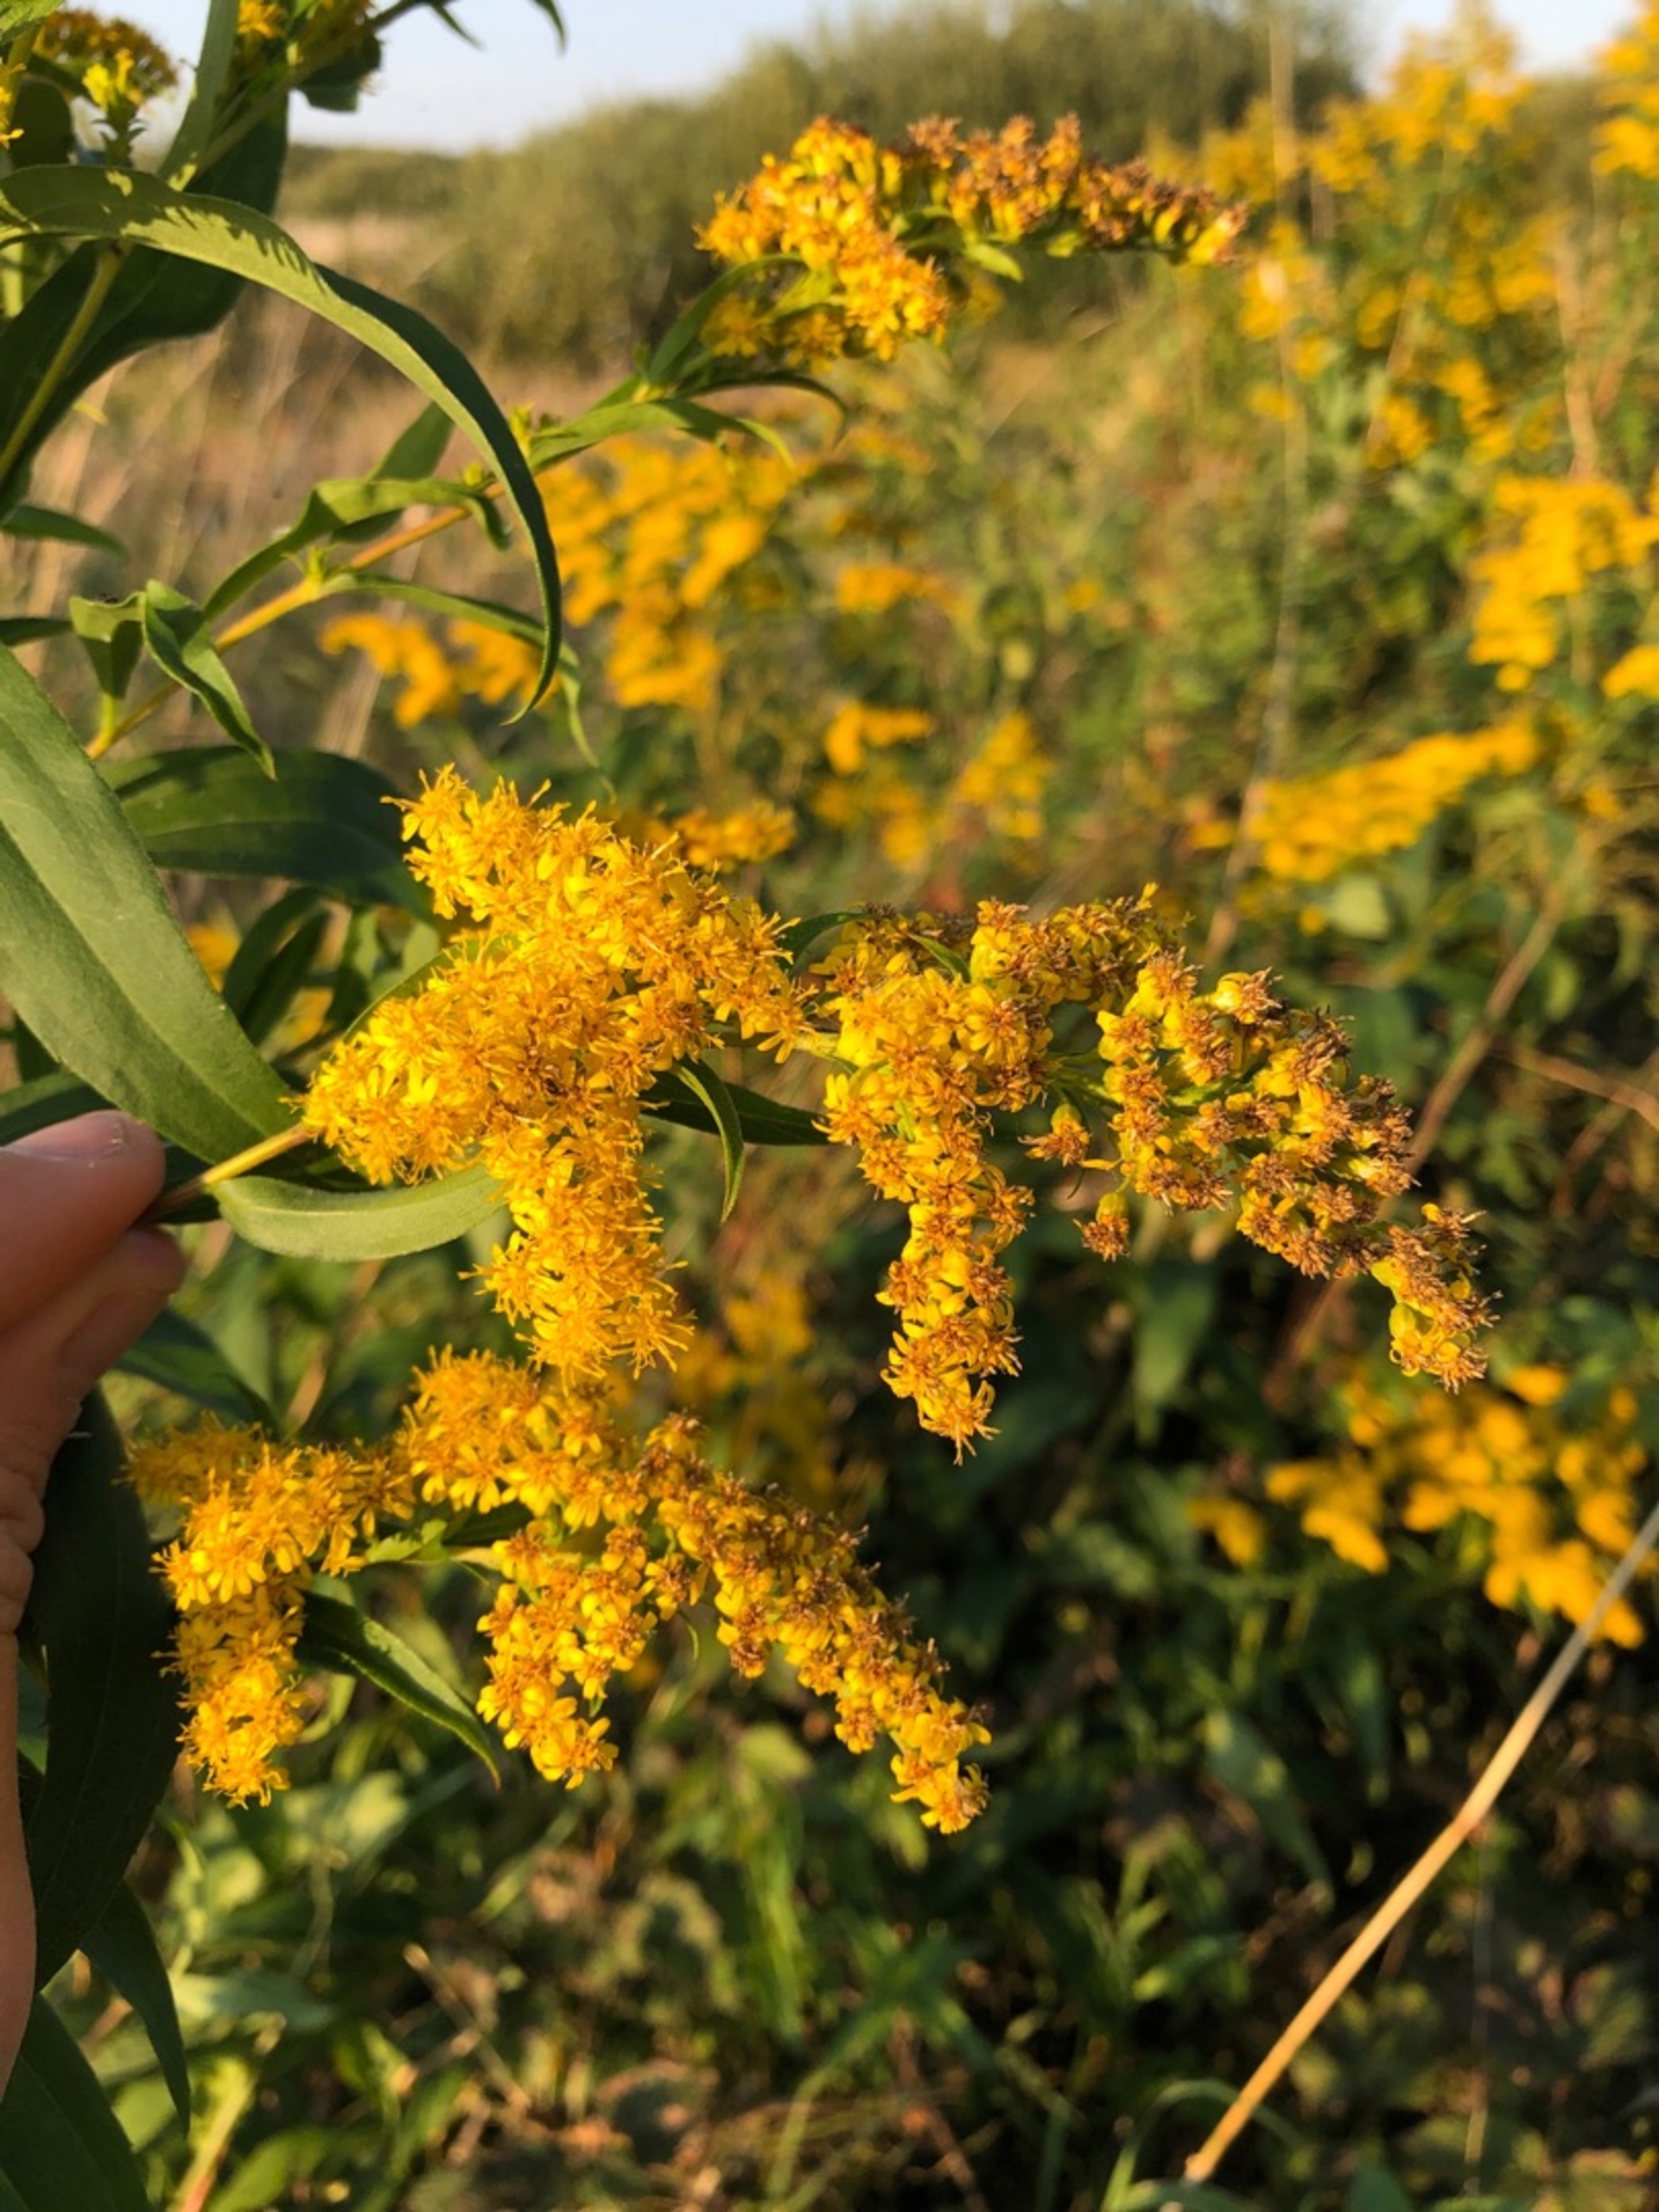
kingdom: Plantae
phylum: Tracheophyta
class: Magnoliopsida
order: Asterales
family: Asteraceae
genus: Solidago
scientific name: Solidago gigantea
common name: Sildig gyldenris
